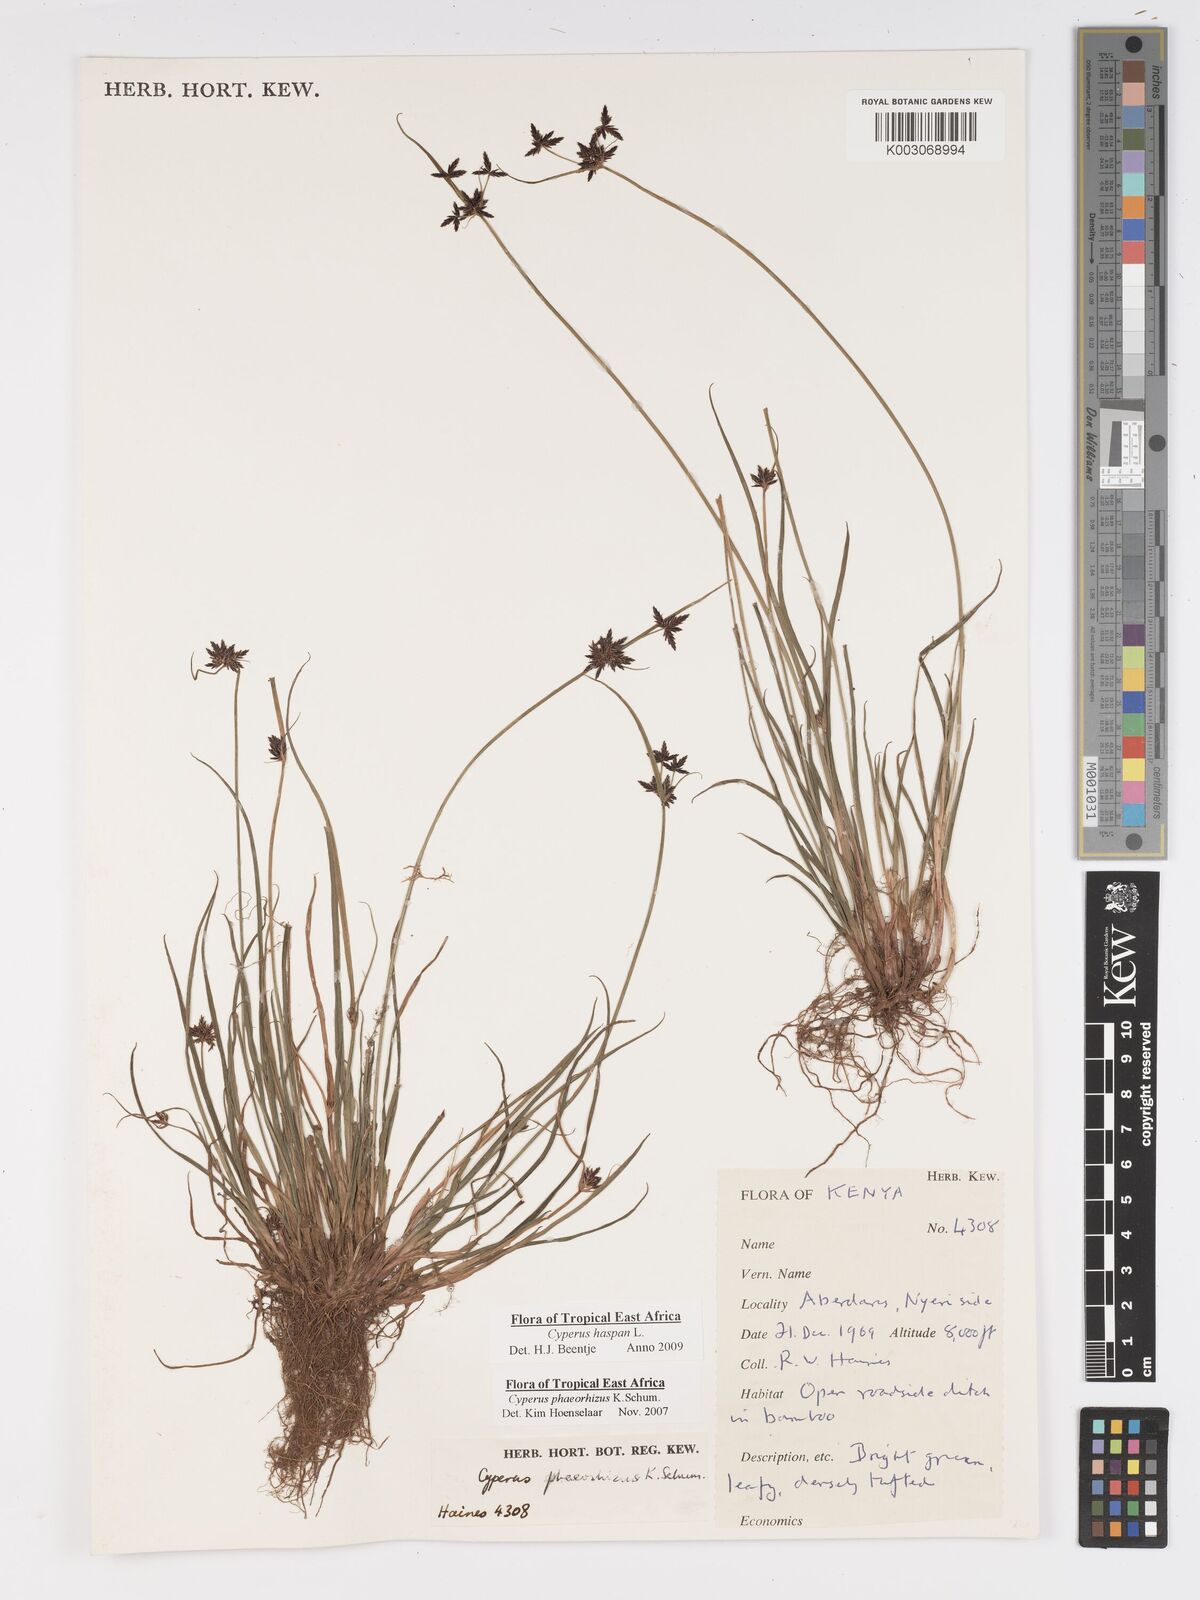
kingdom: Plantae
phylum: Tracheophyta
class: Liliopsida
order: Poales
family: Cyperaceae
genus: Cyperus
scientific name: Cyperus haspan
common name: Haspan flatsedge
